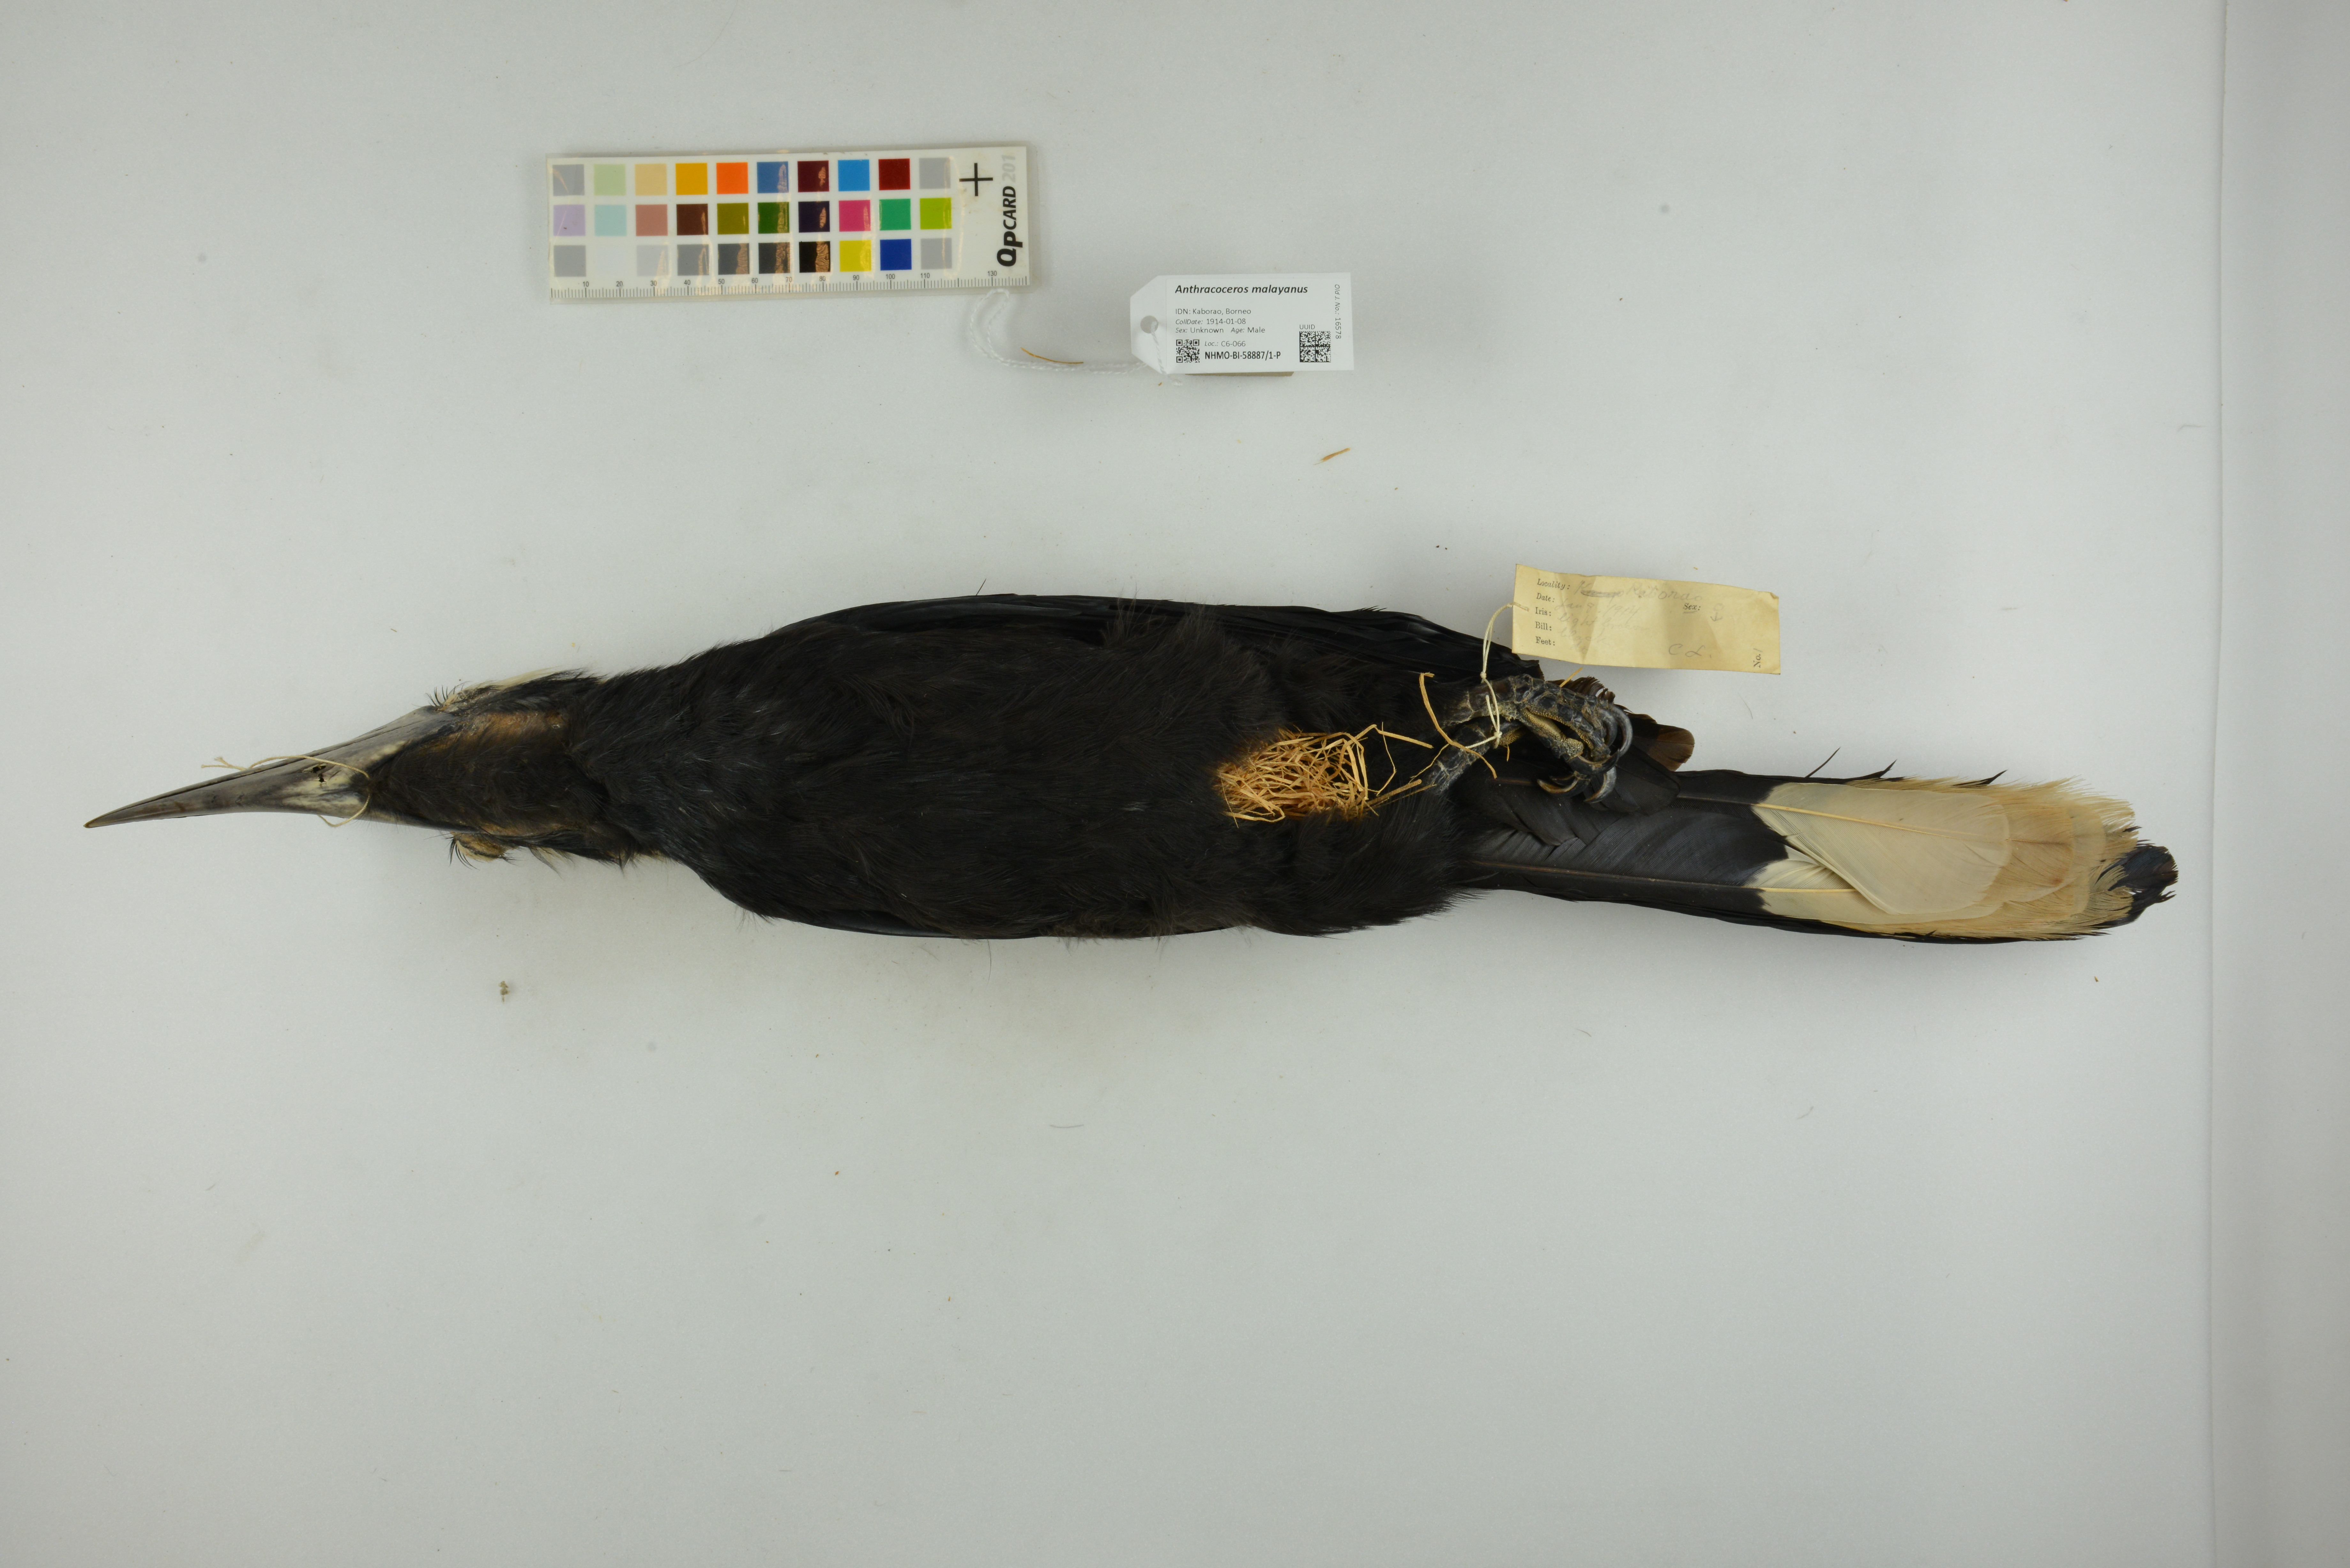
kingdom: Animalia
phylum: Chordata
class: Aves
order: Bucerotiformes
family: Bucerotidae
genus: Anthracoceros
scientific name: Anthracoceros malayanus
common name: Black hornbill
